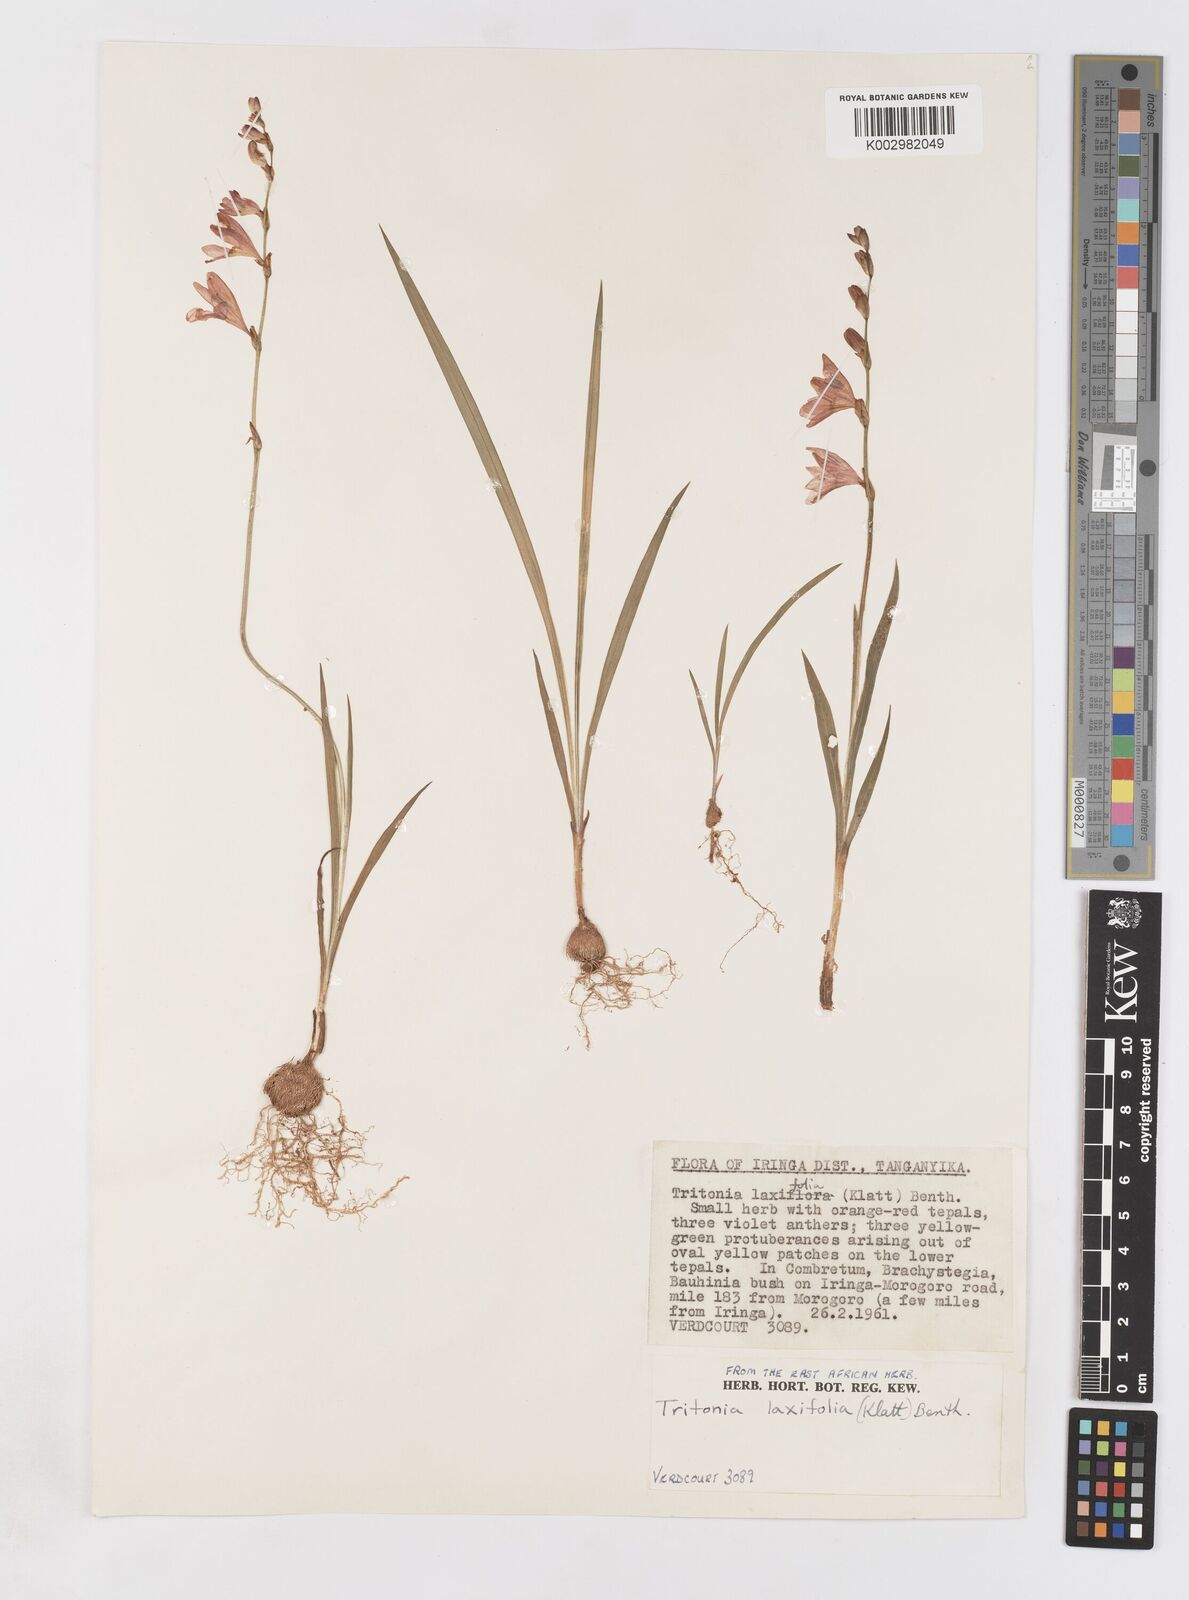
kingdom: Plantae
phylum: Tracheophyta
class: Liliopsida
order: Asparagales
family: Iridaceae
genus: Tritonia
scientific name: Tritonia laxifolia
